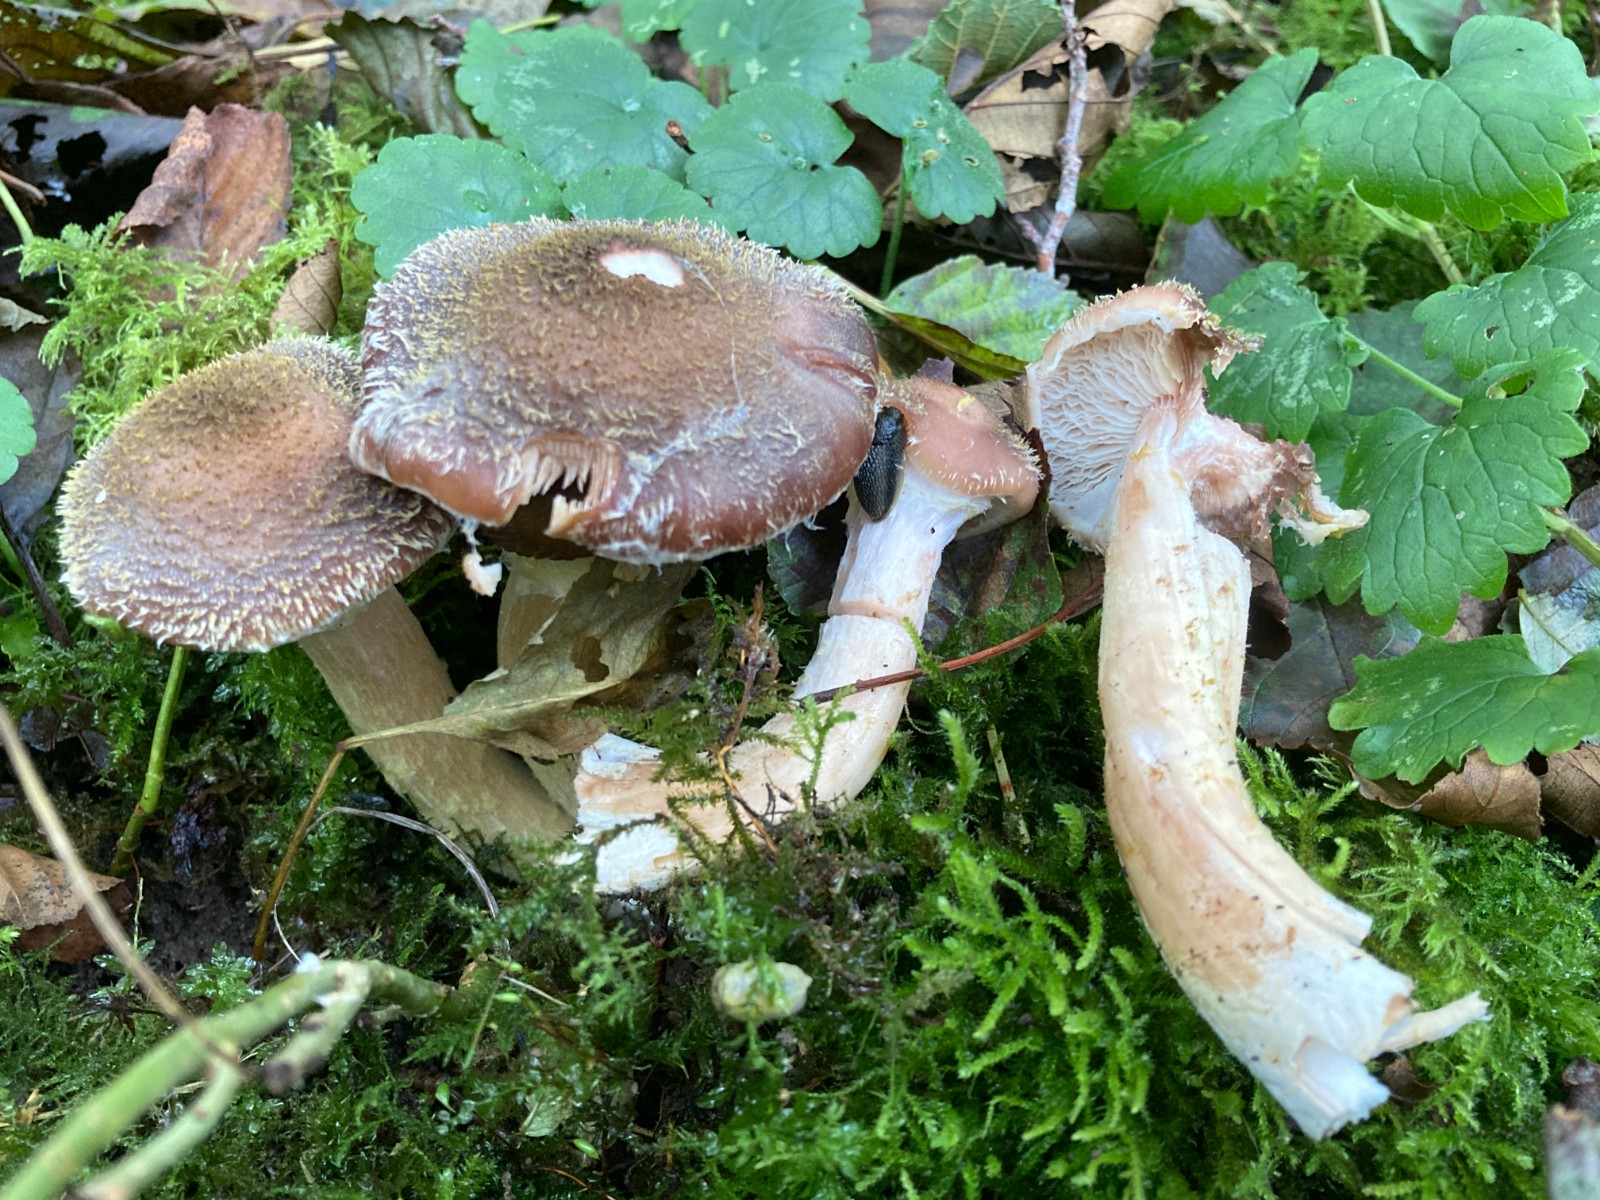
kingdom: Fungi
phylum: Basidiomycota
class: Agaricomycetes
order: Agaricales
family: Physalacriaceae
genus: Armillaria
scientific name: Armillaria lutea
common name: køllestokket honningsvamp
